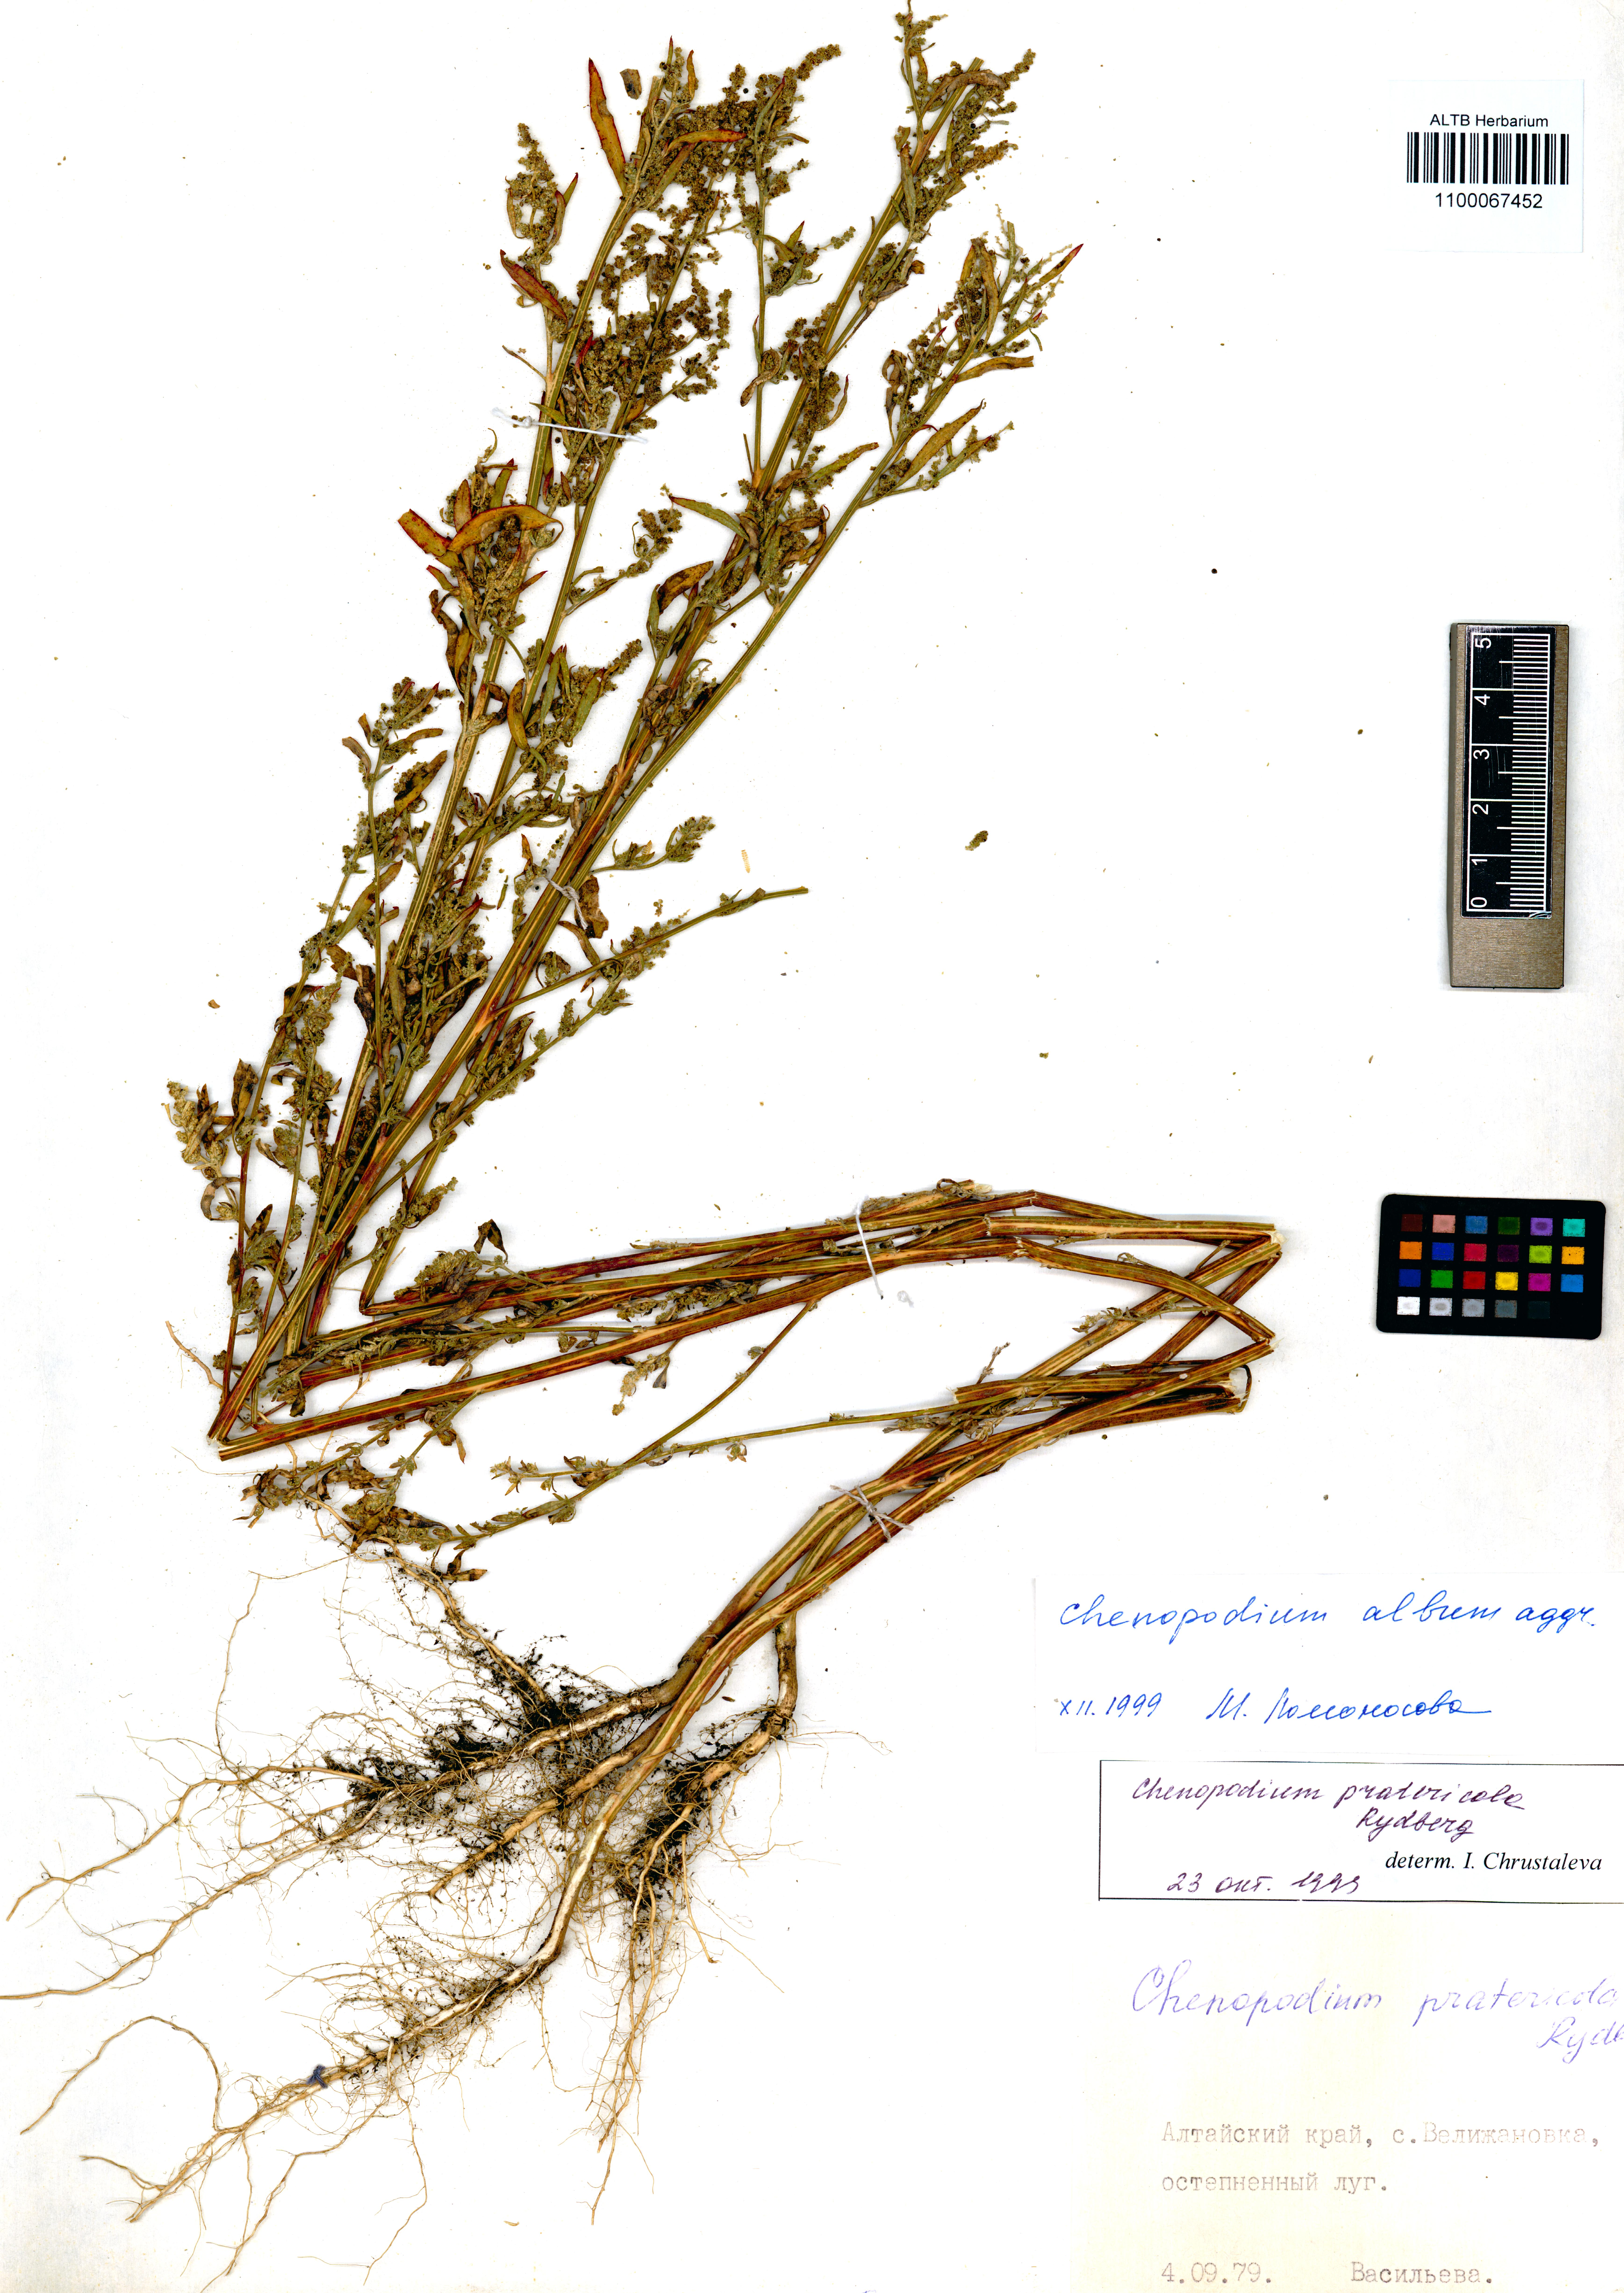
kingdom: Plantae
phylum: Tracheophyta
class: Magnoliopsida
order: Caryophyllales
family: Amaranthaceae
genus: Chenopodium
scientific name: Chenopodium album
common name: Fat-hen
